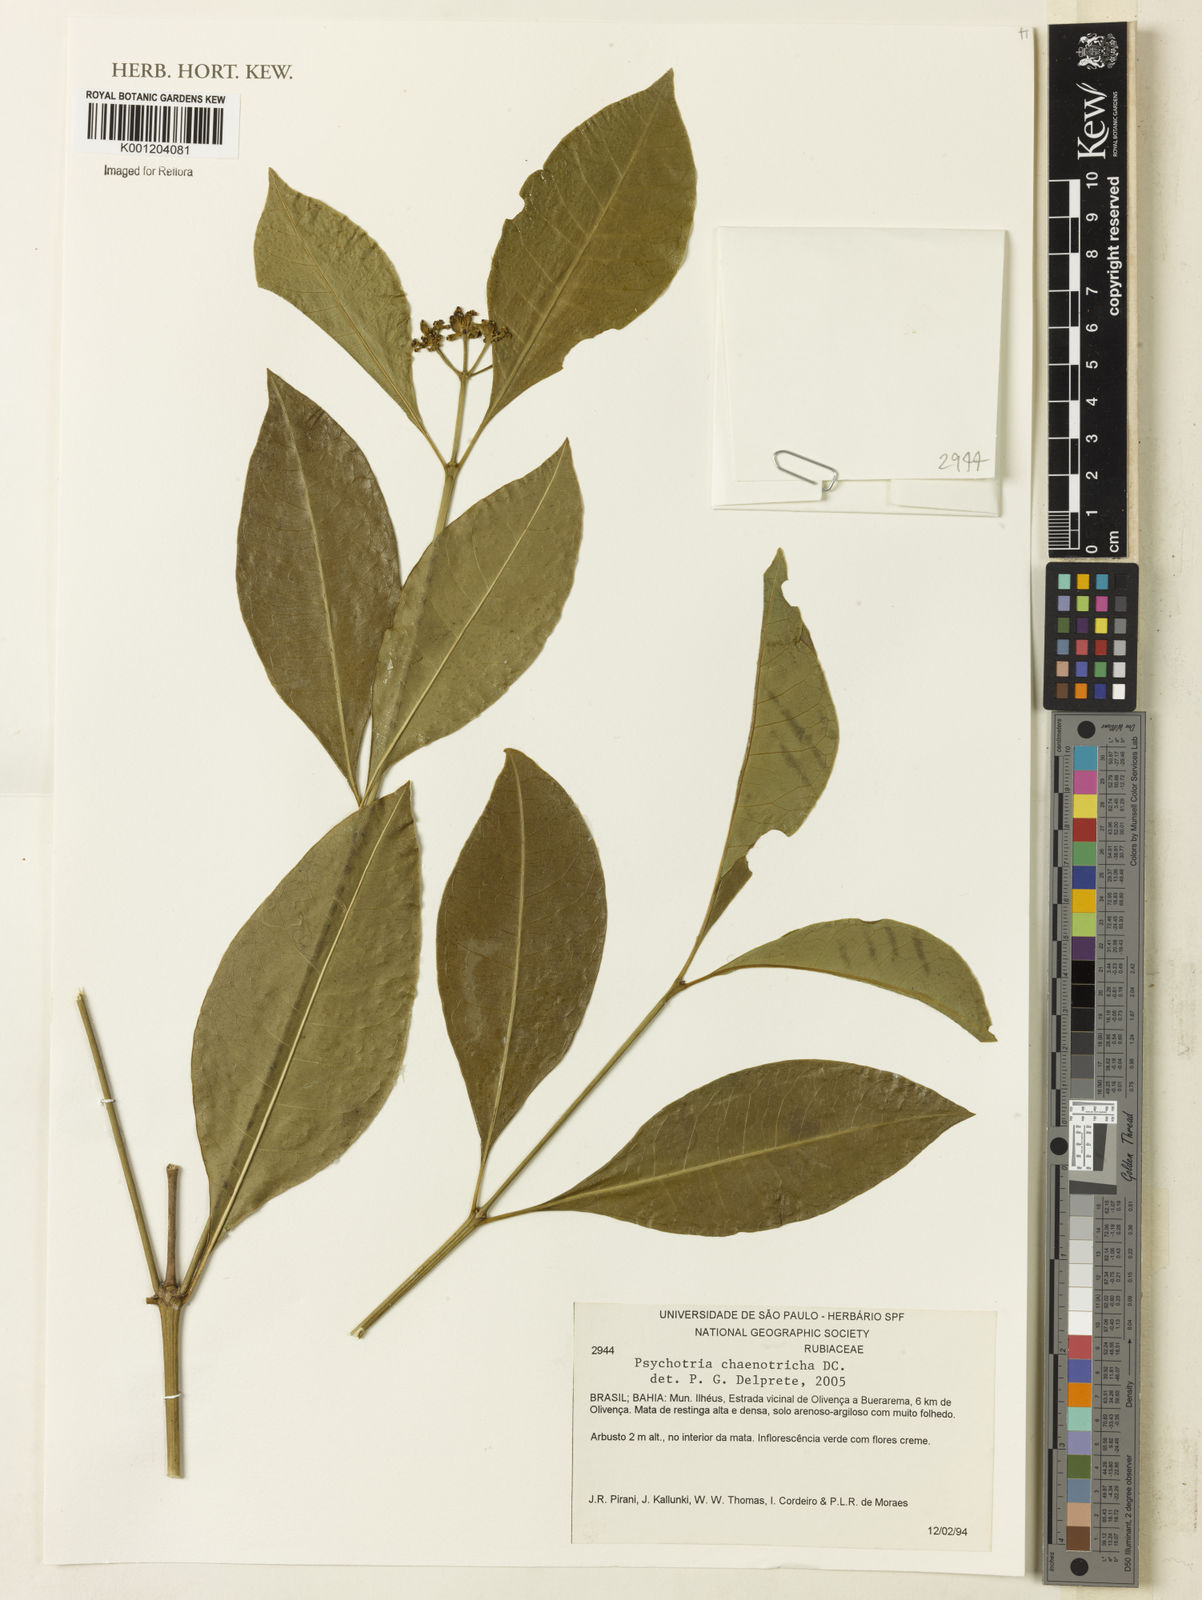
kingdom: Plantae
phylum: Tracheophyta
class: Magnoliopsida
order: Gentianales
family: Rubiaceae
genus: Eumachia
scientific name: Eumachia chaenotricha
